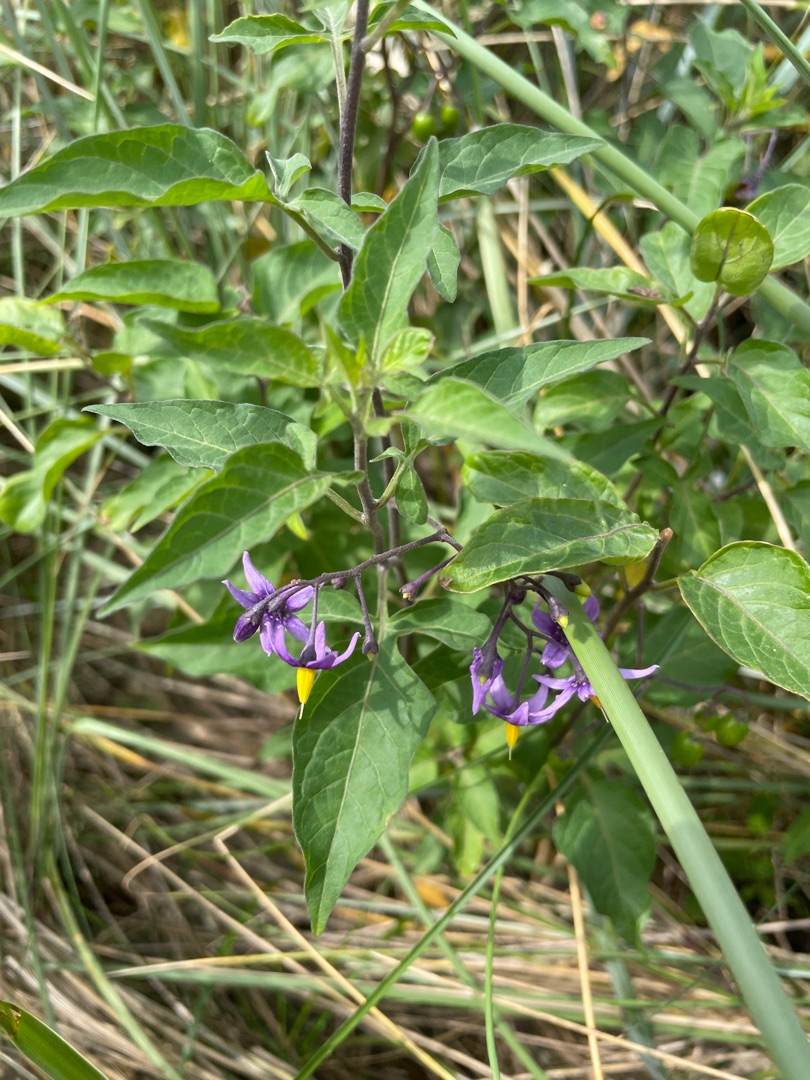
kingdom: Plantae
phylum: Tracheophyta
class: Magnoliopsida
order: Solanales
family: Solanaceae
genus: Solanum
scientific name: Solanum dulcamara
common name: Bittersød natskygge
